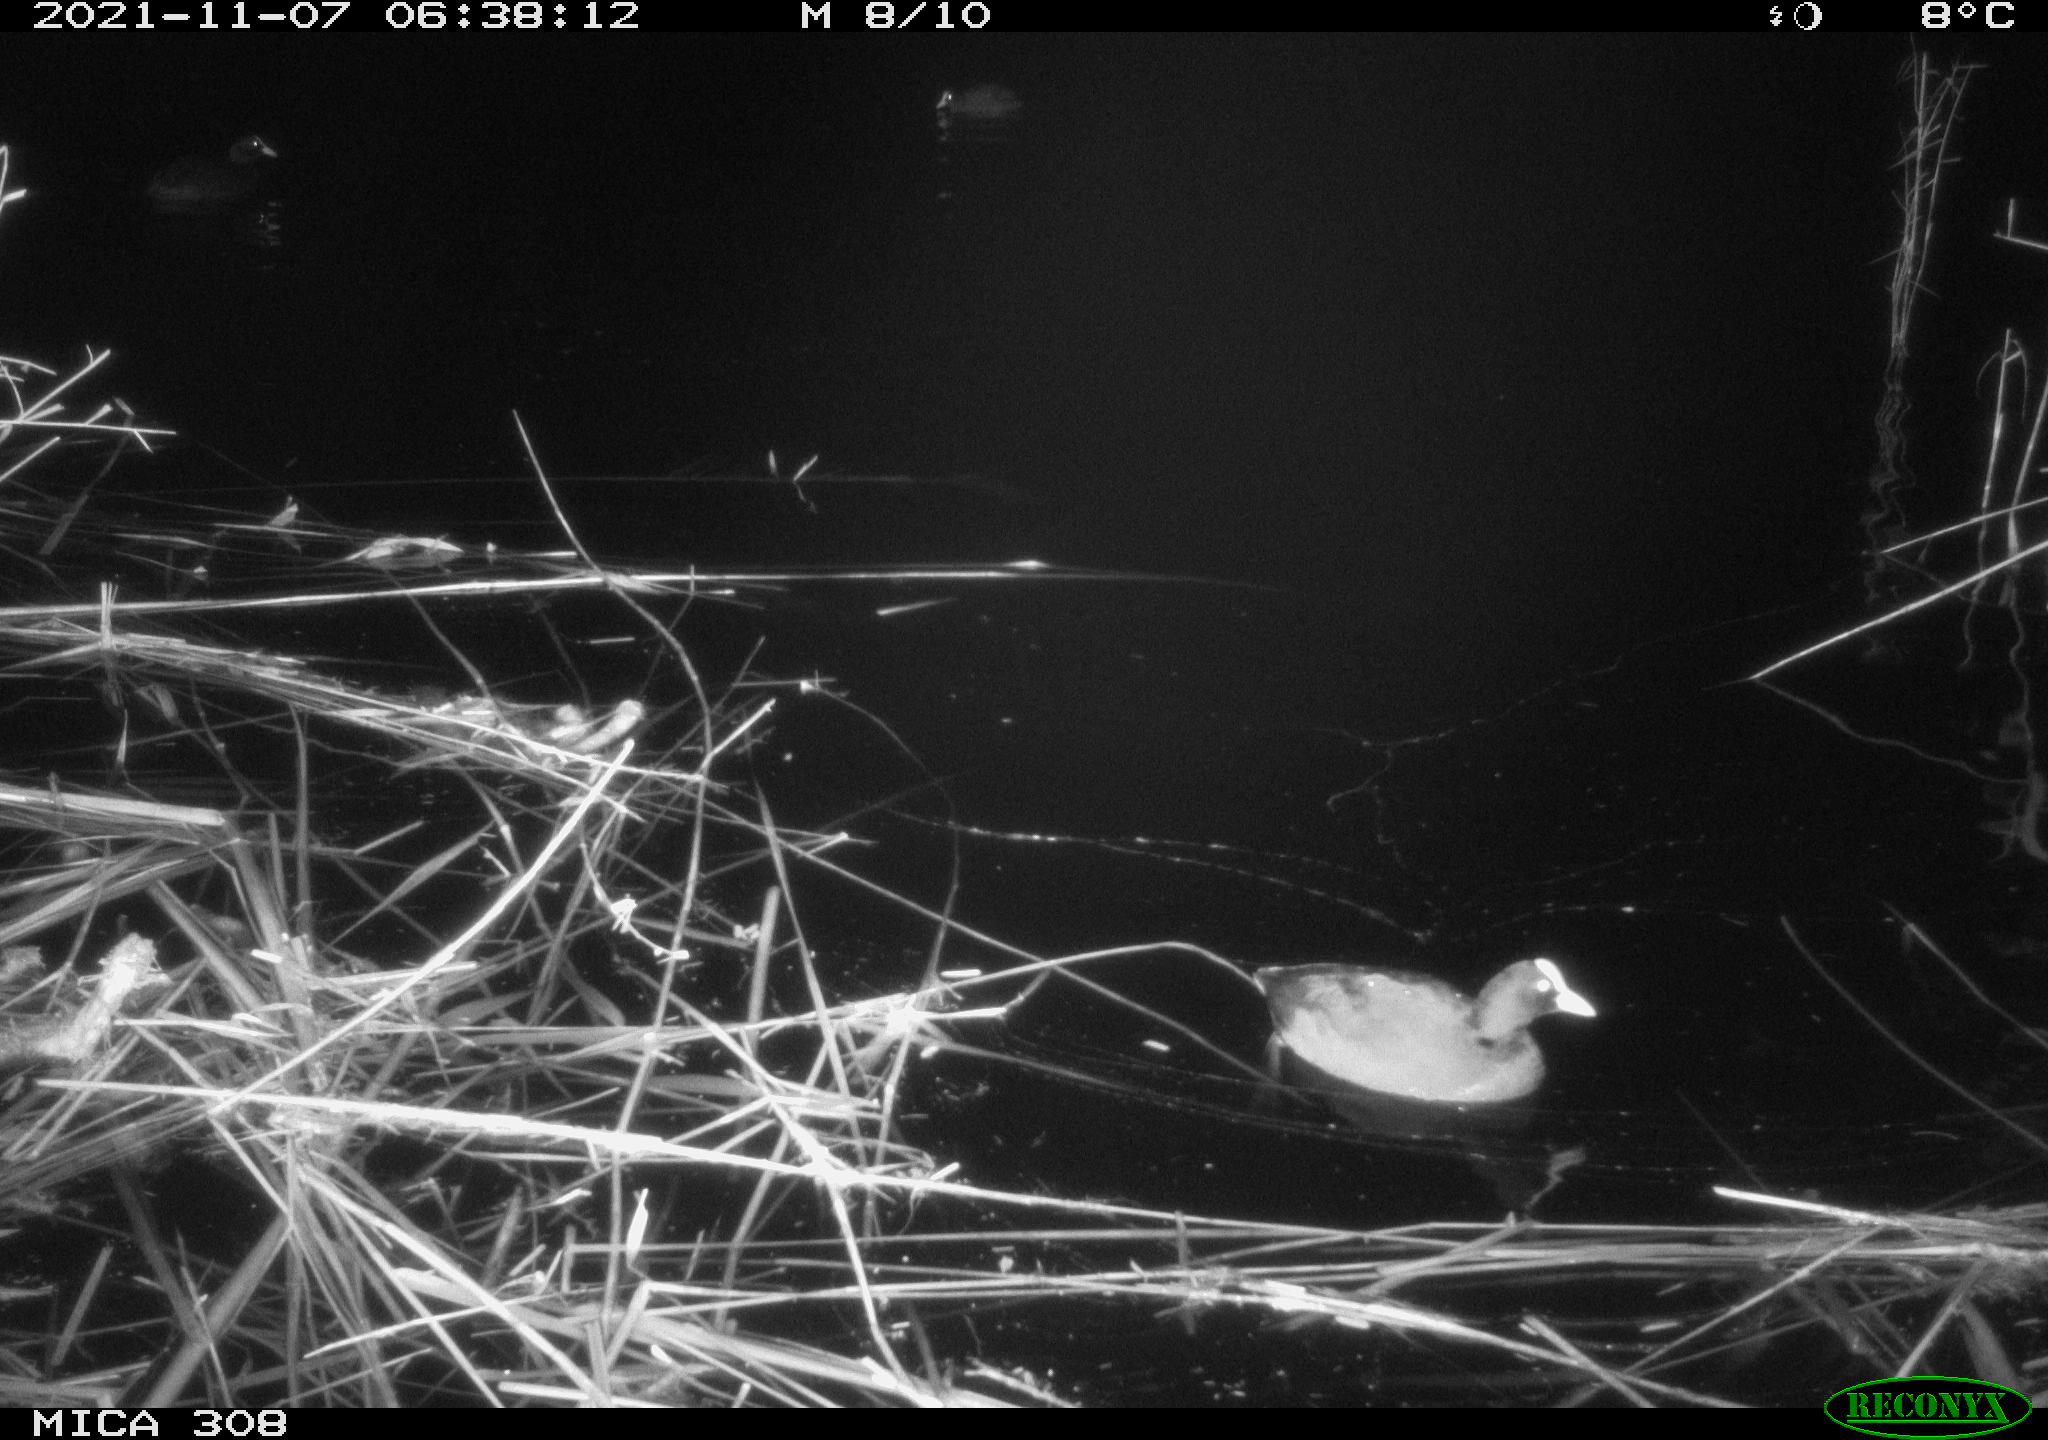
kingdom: Animalia
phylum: Chordata
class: Aves
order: Gruiformes
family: Rallidae
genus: Fulica
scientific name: Fulica atra
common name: Eurasian coot
